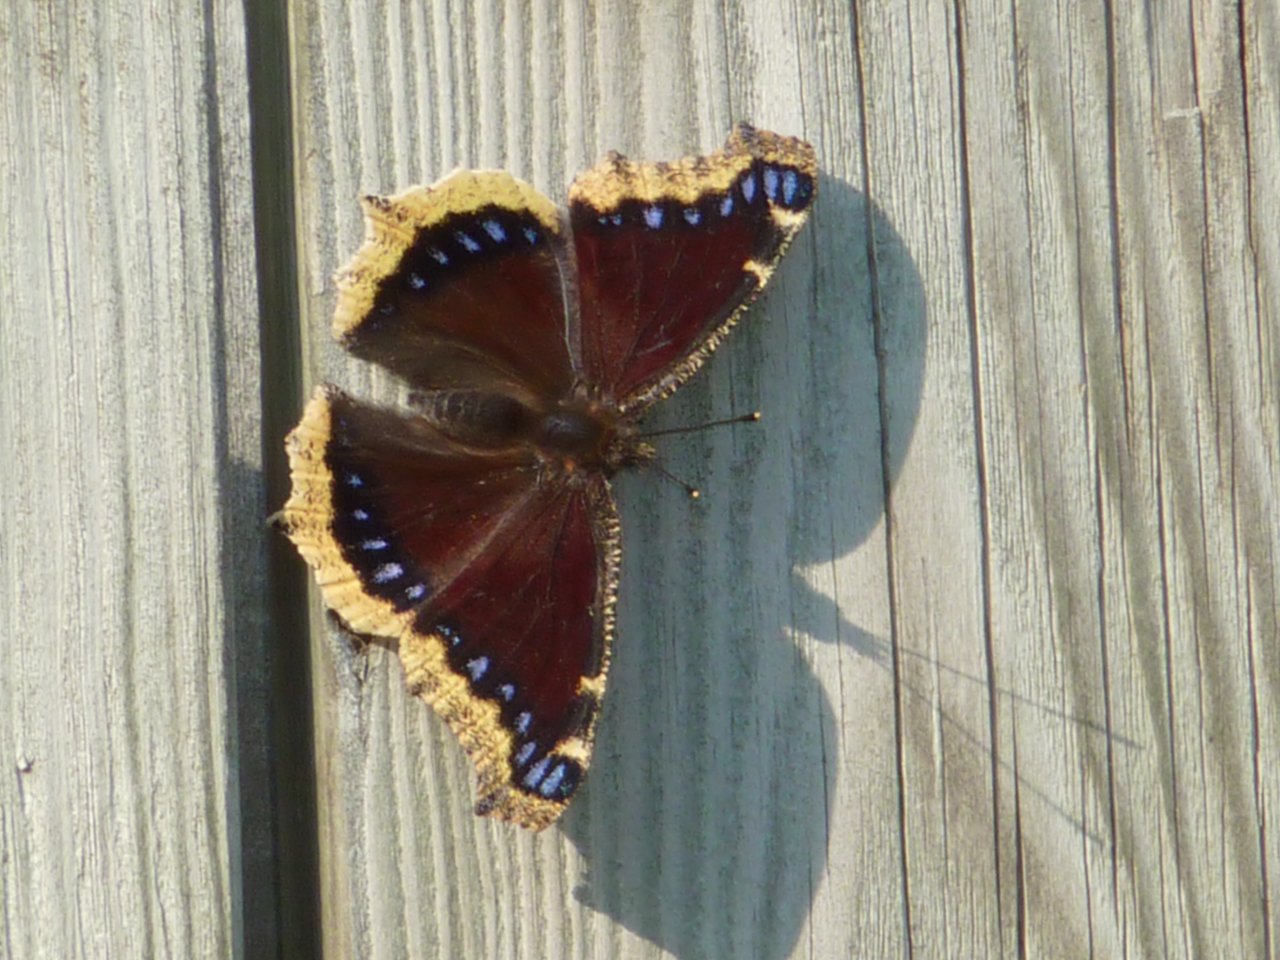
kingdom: Animalia
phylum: Arthropoda
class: Insecta
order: Lepidoptera
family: Nymphalidae
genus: Nymphalis
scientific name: Nymphalis antiopa
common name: Mourning Cloak
